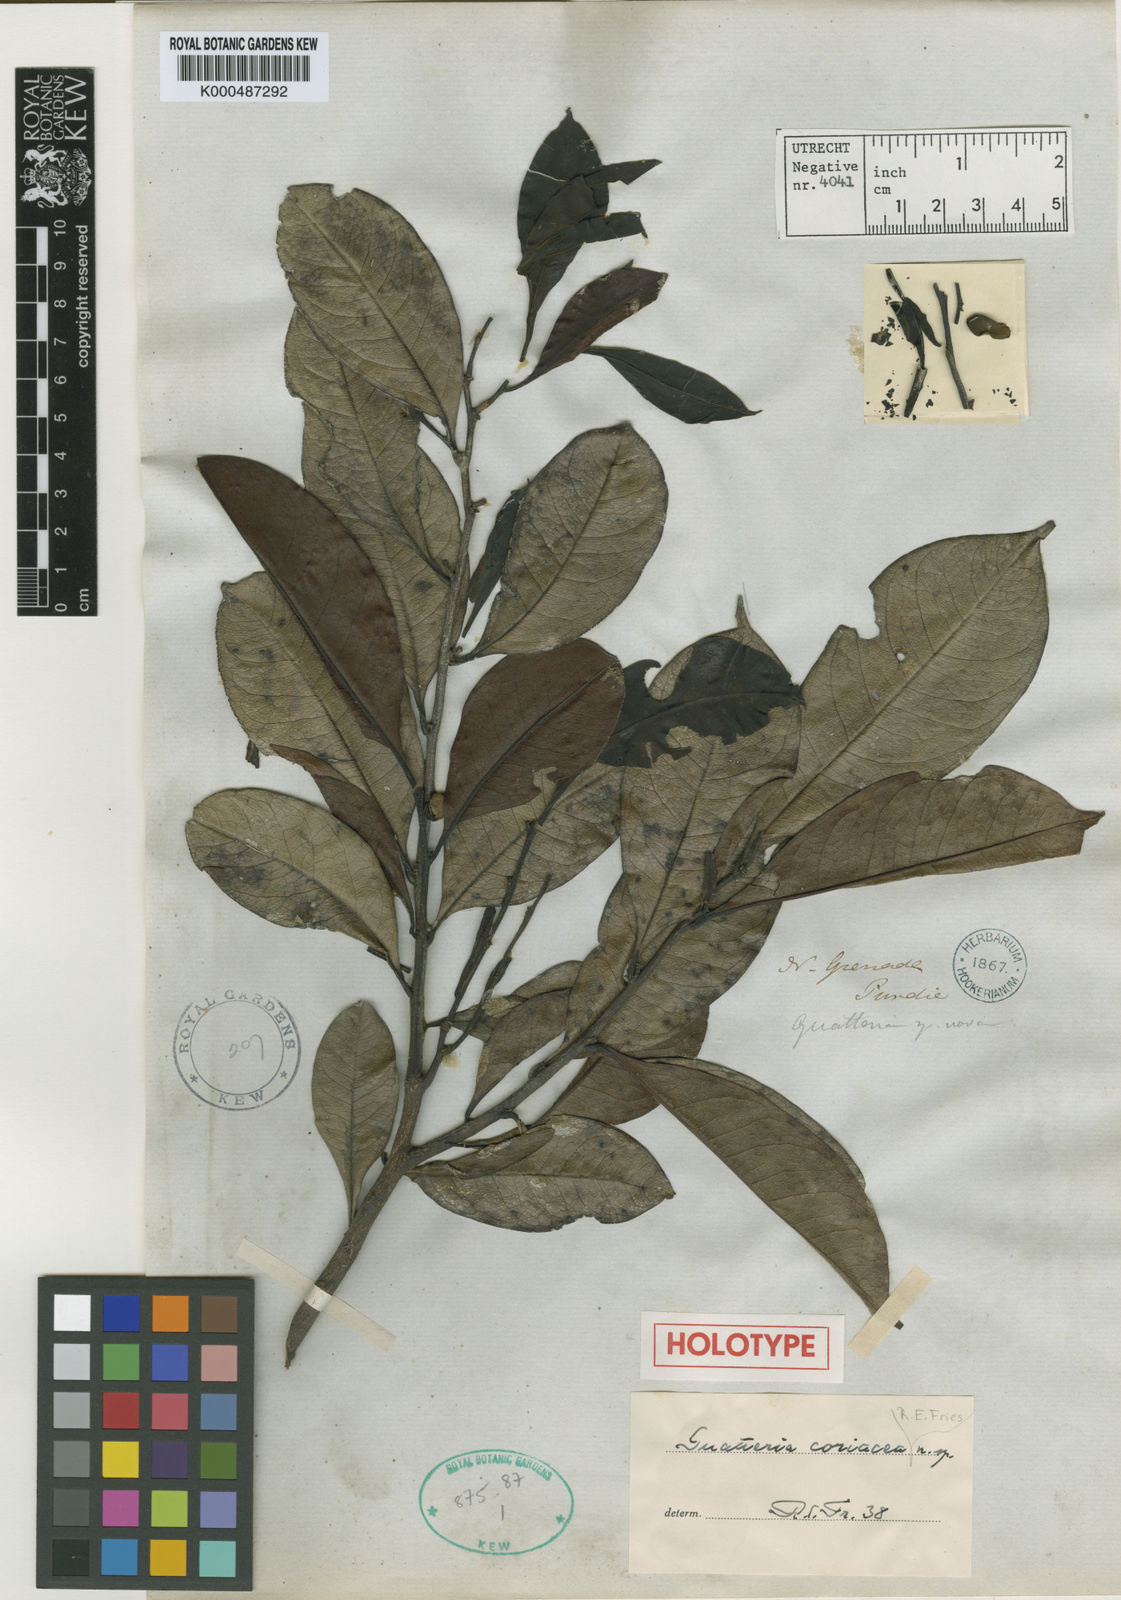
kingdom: Plantae
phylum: Tracheophyta
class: Magnoliopsida
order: Magnoliales
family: Annonaceae
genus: Guatteria
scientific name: Guatteria goudotiana
